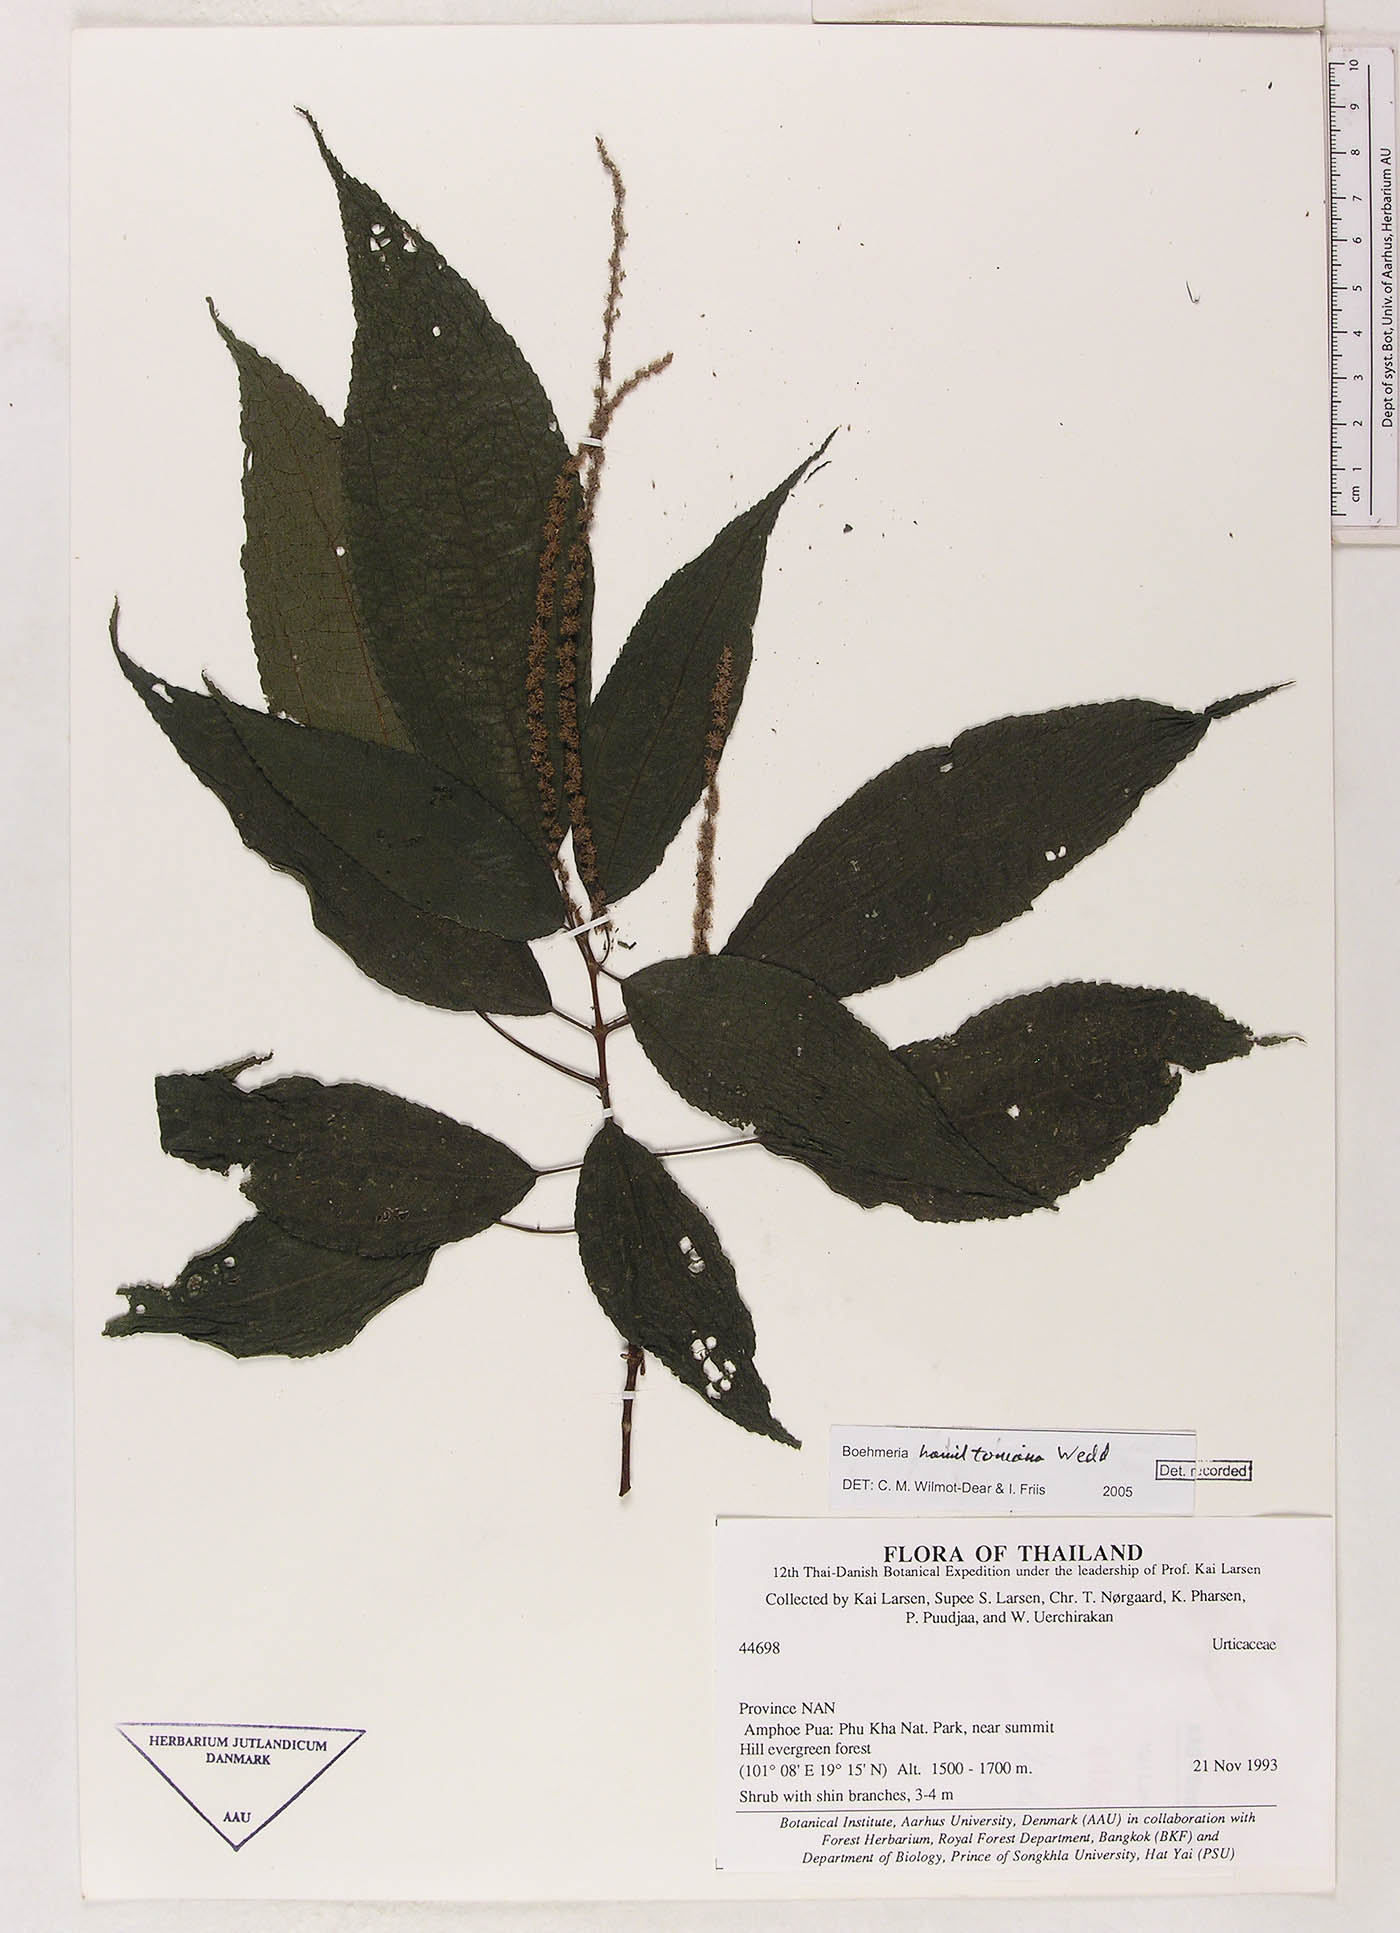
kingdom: Plantae
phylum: Tracheophyta
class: Magnoliopsida
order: Rosales
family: Urticaceae
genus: Boehmeria
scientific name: Boehmeria hamiltoniana
